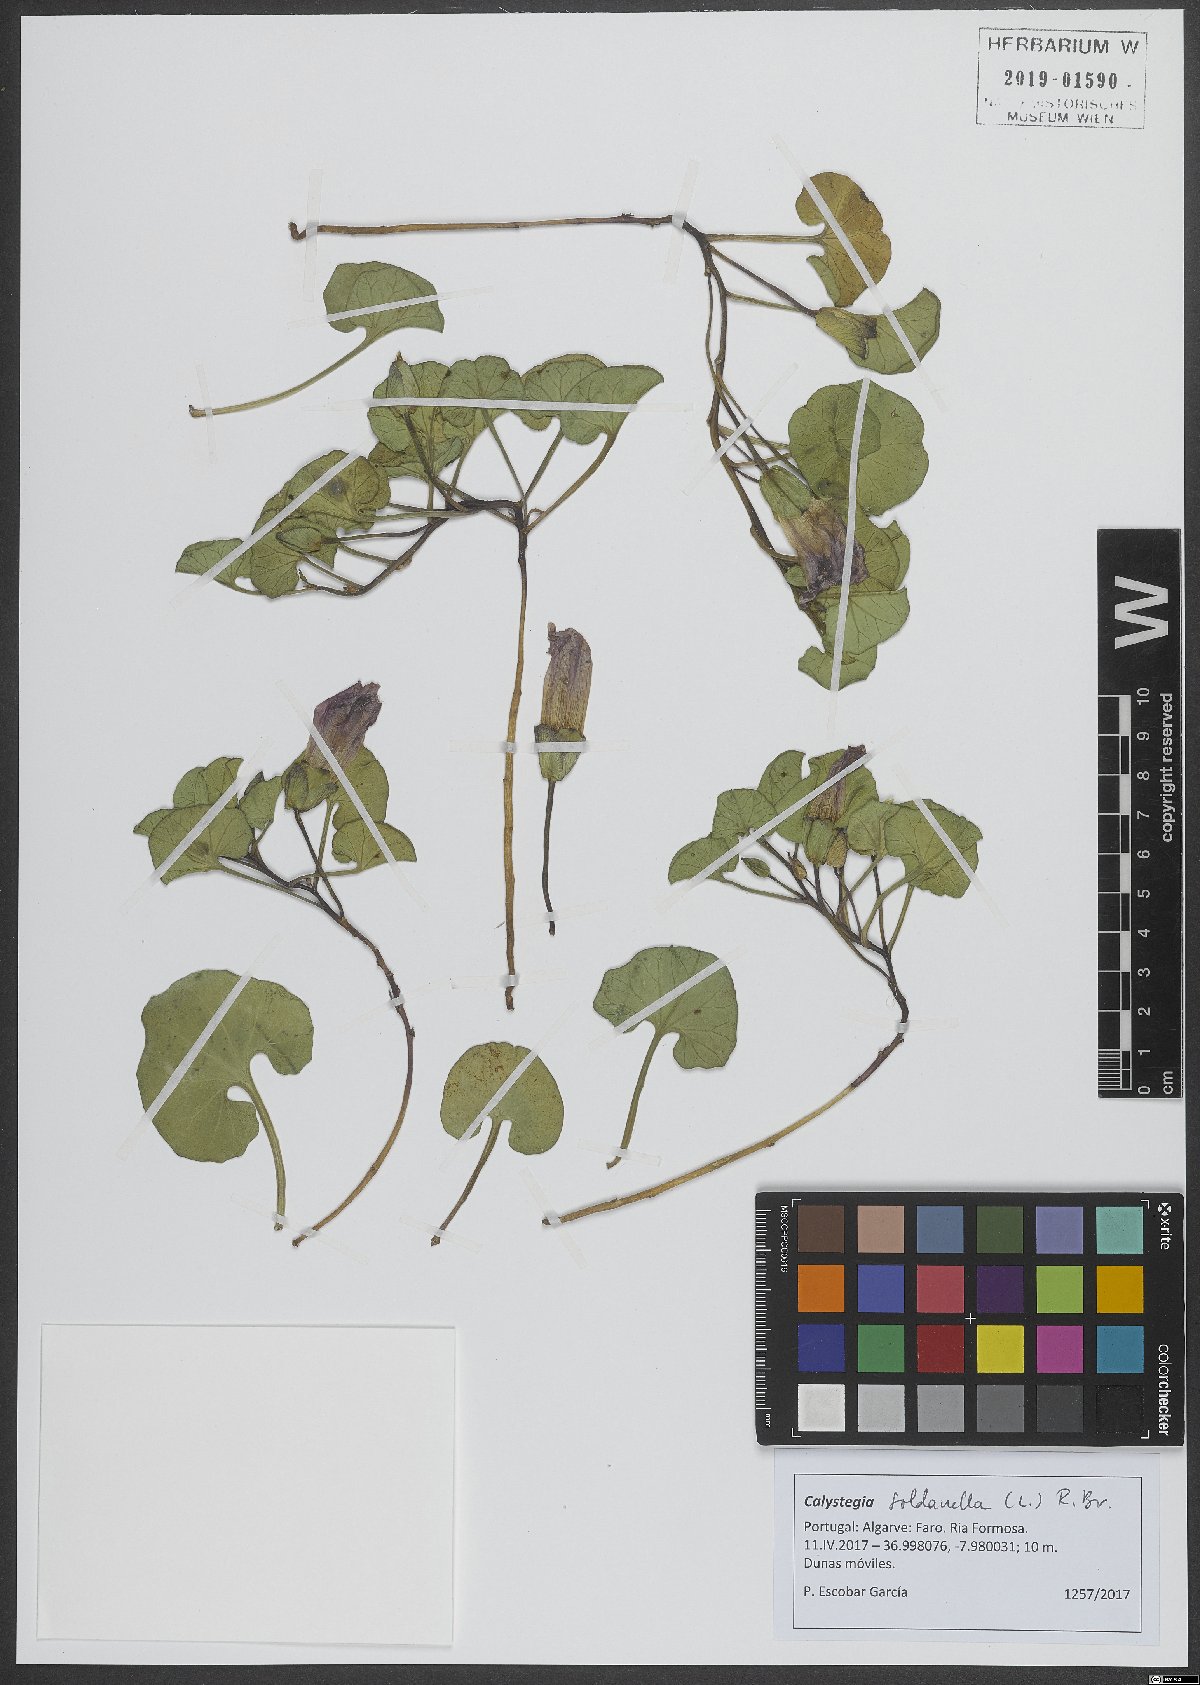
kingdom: Plantae
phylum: Tracheophyta
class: Magnoliopsida
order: Solanales
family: Convolvulaceae
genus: Calystegia
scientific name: Calystegia soldanella
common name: Sea bindweed
